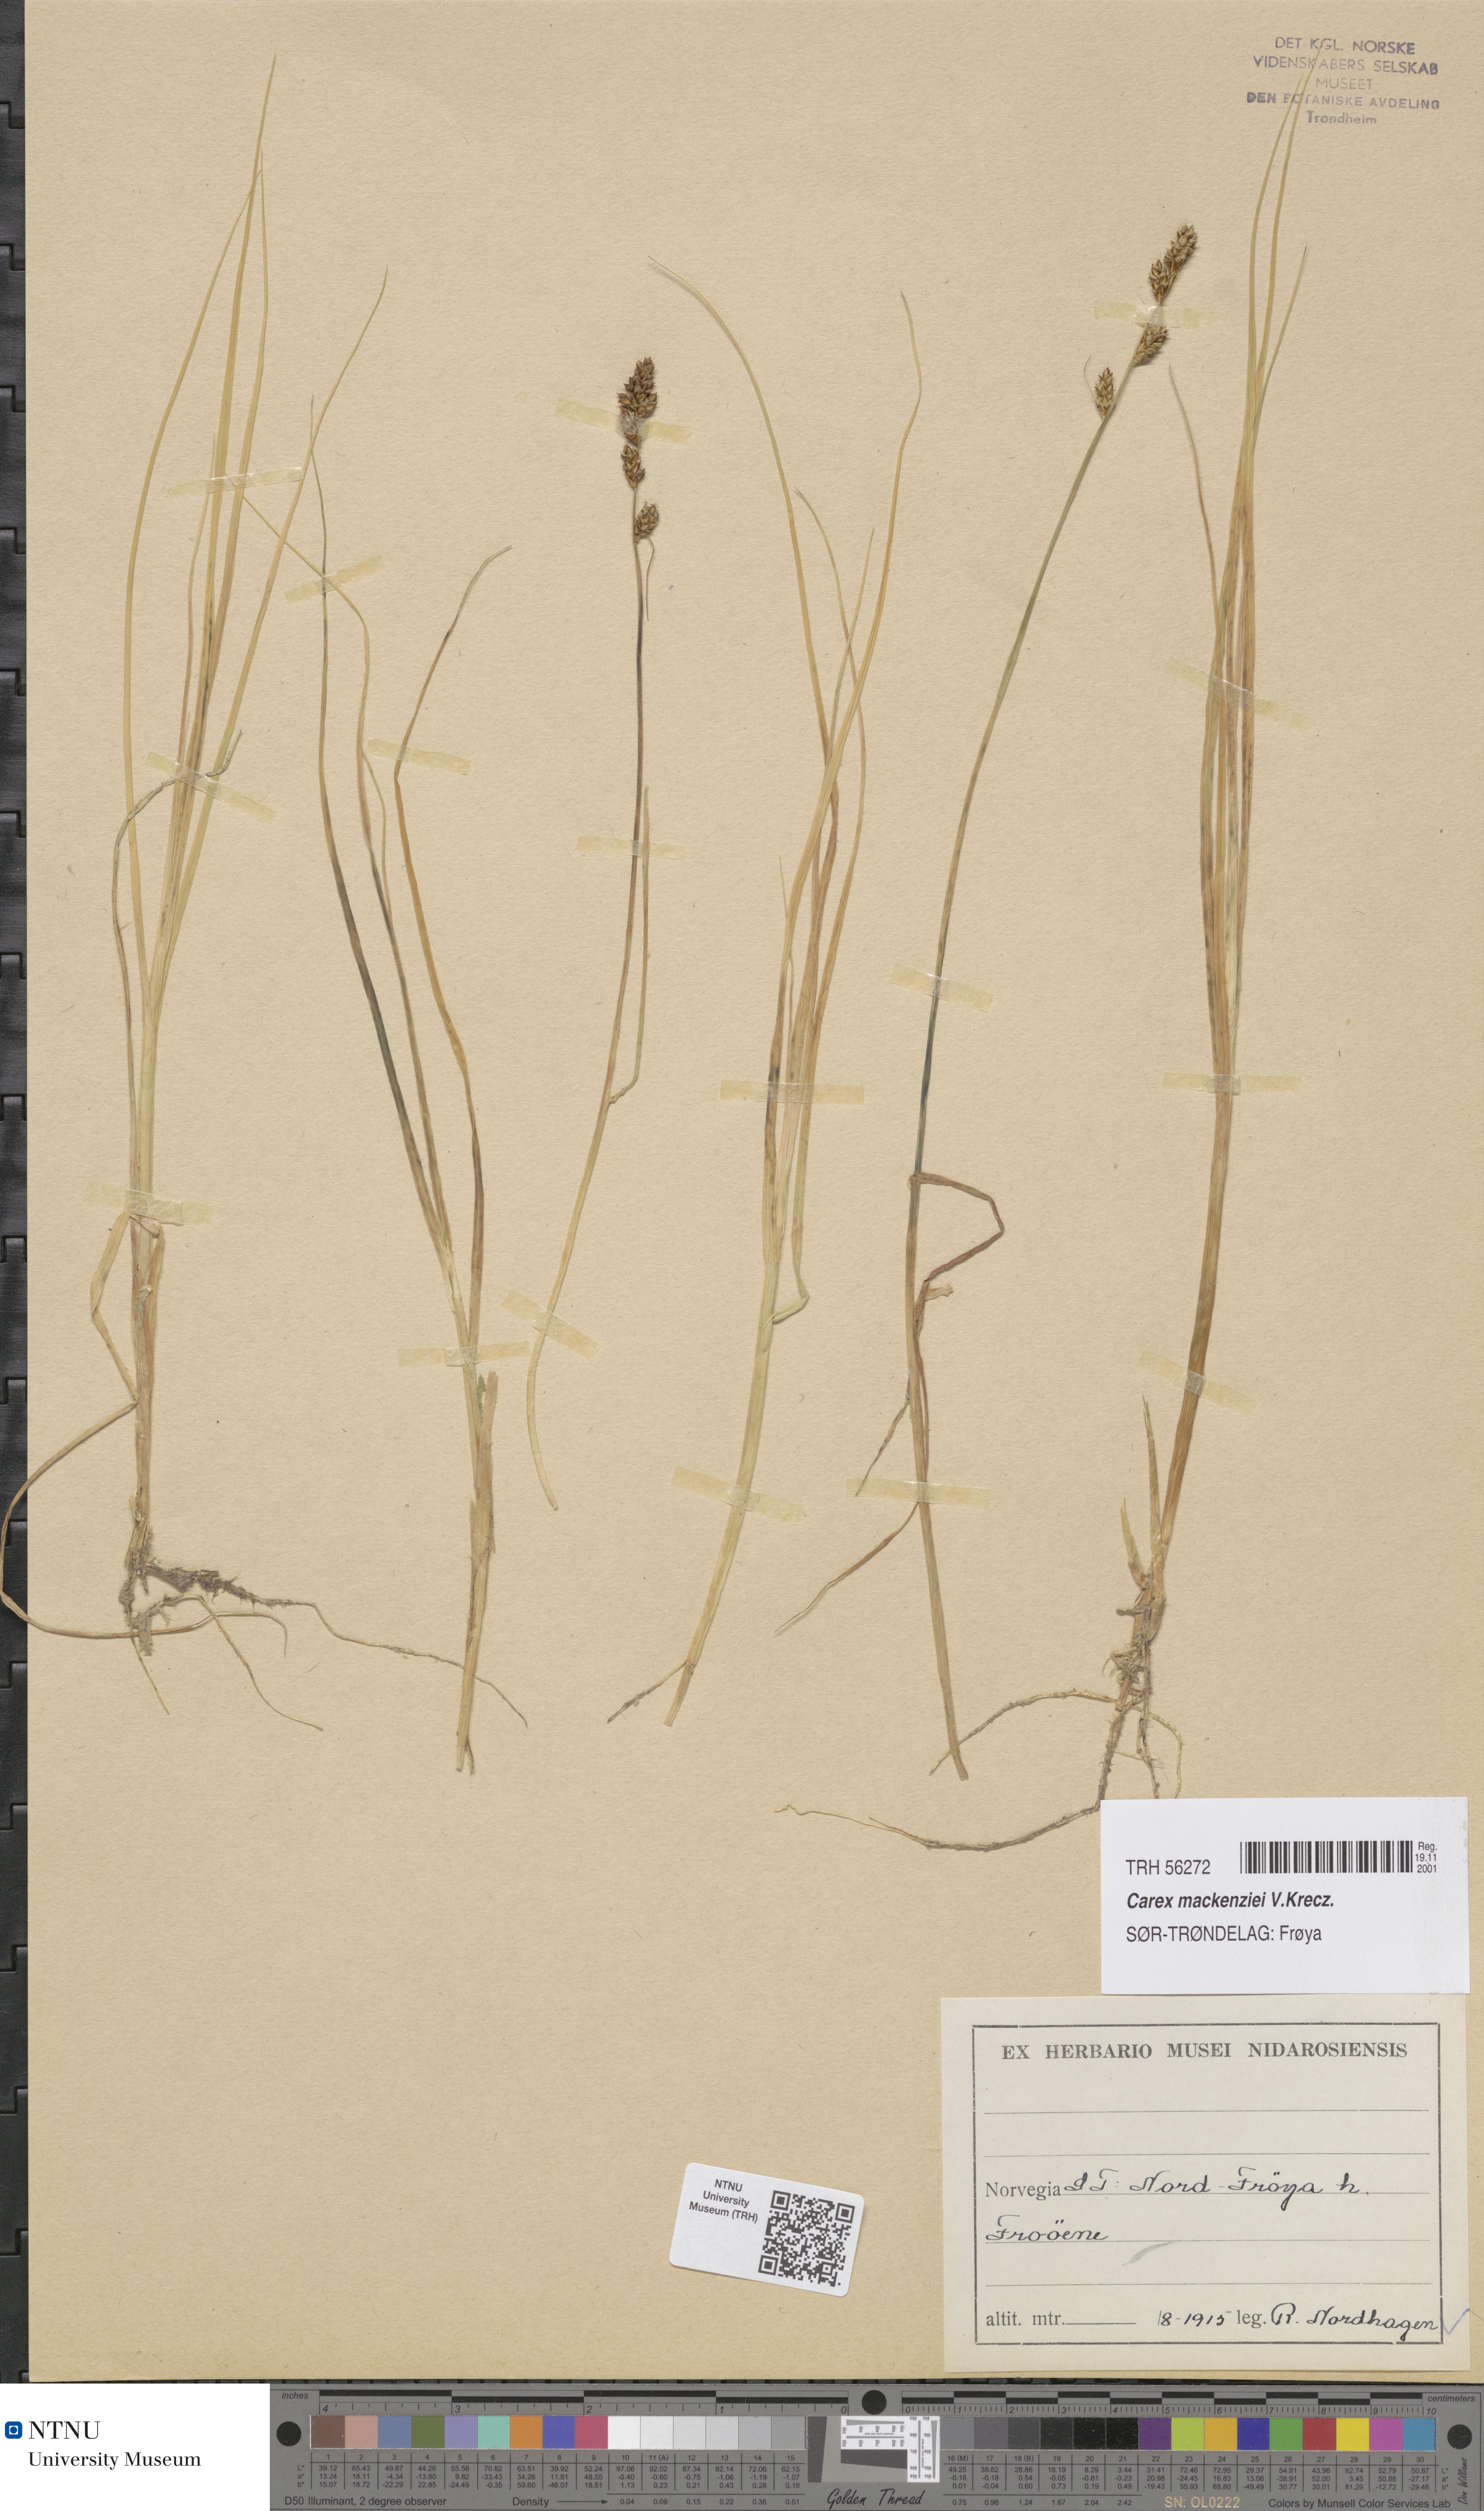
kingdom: Plantae
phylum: Tracheophyta
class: Liliopsida
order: Poales
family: Cyperaceae
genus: Carex
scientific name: Carex mackenziei
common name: Mackenzie's sedge
